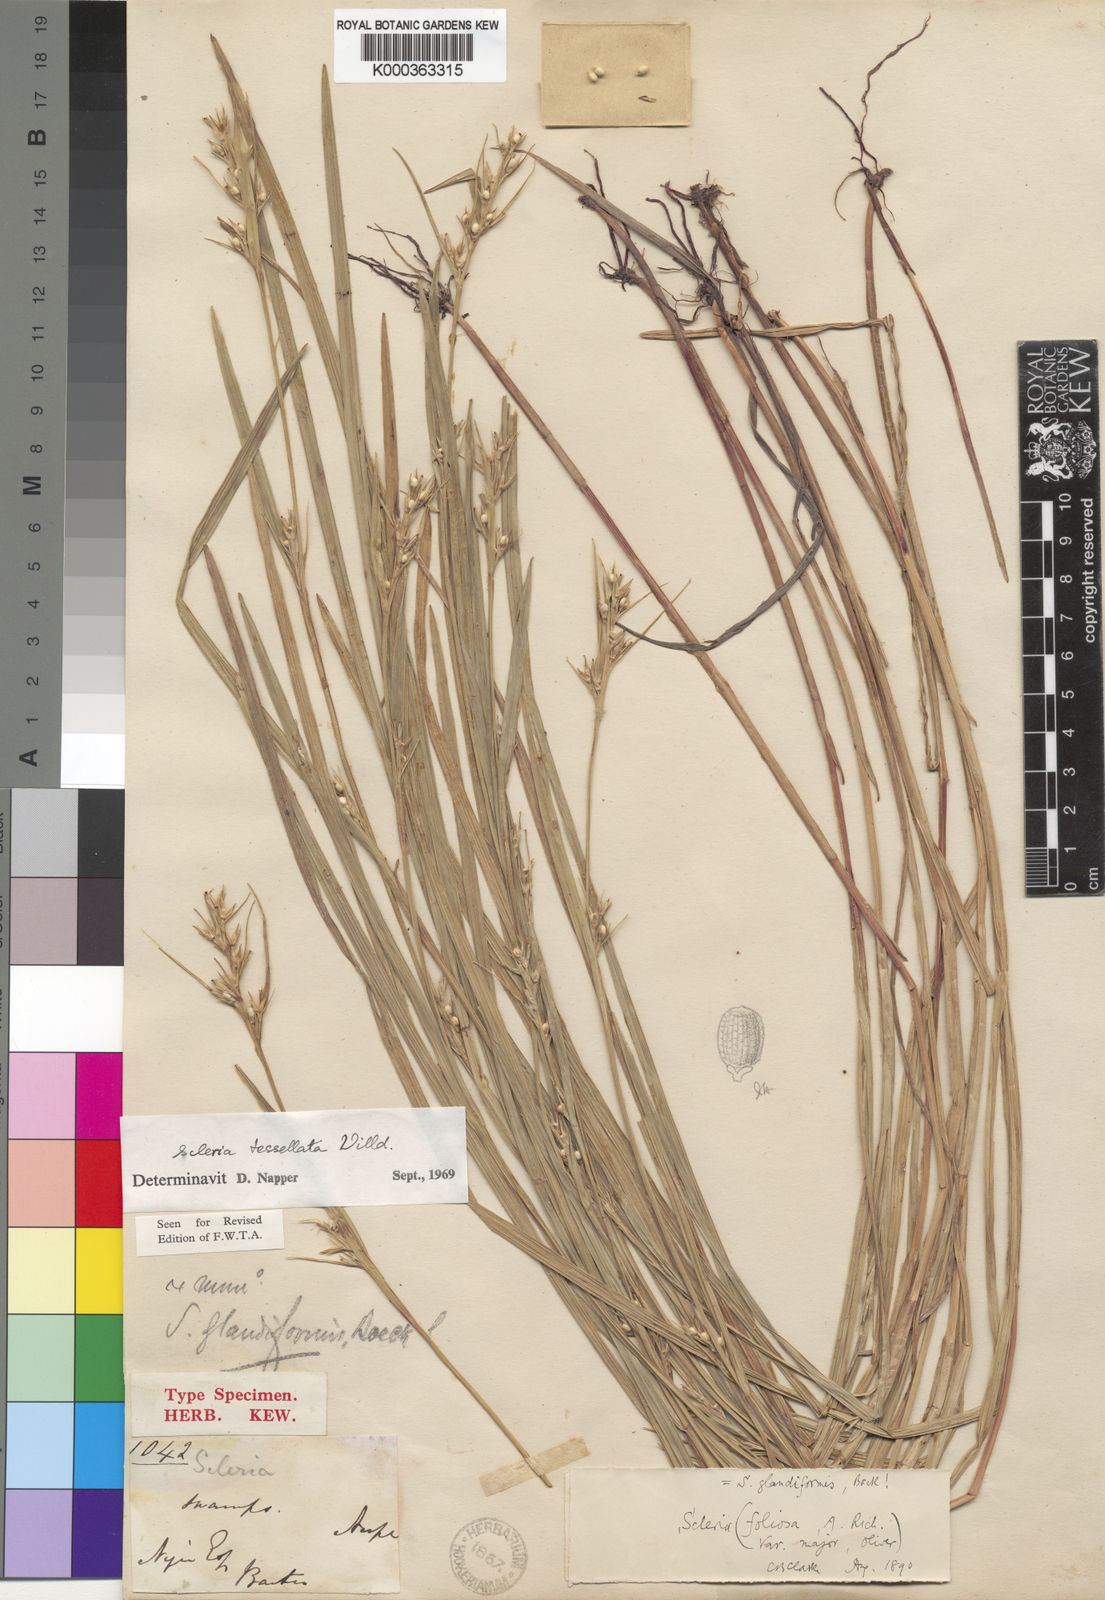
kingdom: Plantae
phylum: Tracheophyta
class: Liliopsida
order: Poales
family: Cyperaceae
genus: Scleria
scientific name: Scleria tessellata
